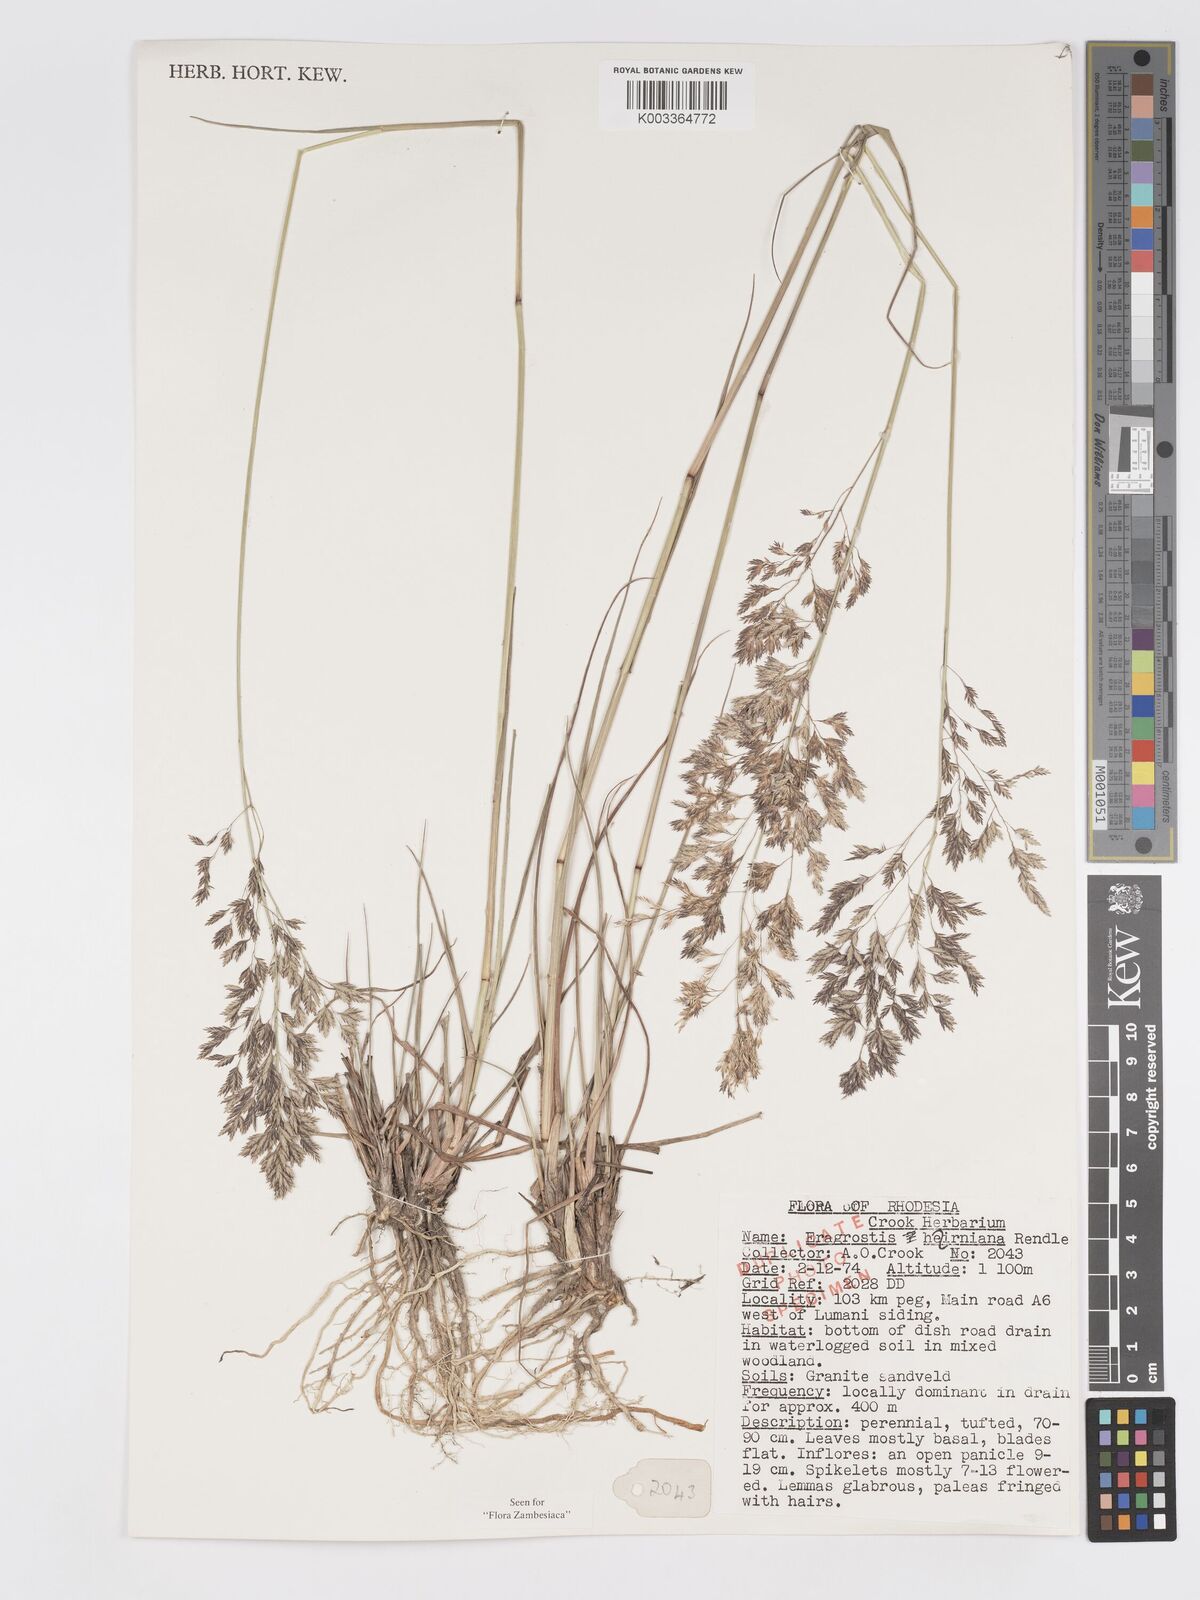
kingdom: Plantae
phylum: Tracheophyta
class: Liliopsida
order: Poales
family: Poaceae
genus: Eragrostis
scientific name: Eragrostis hierniana
